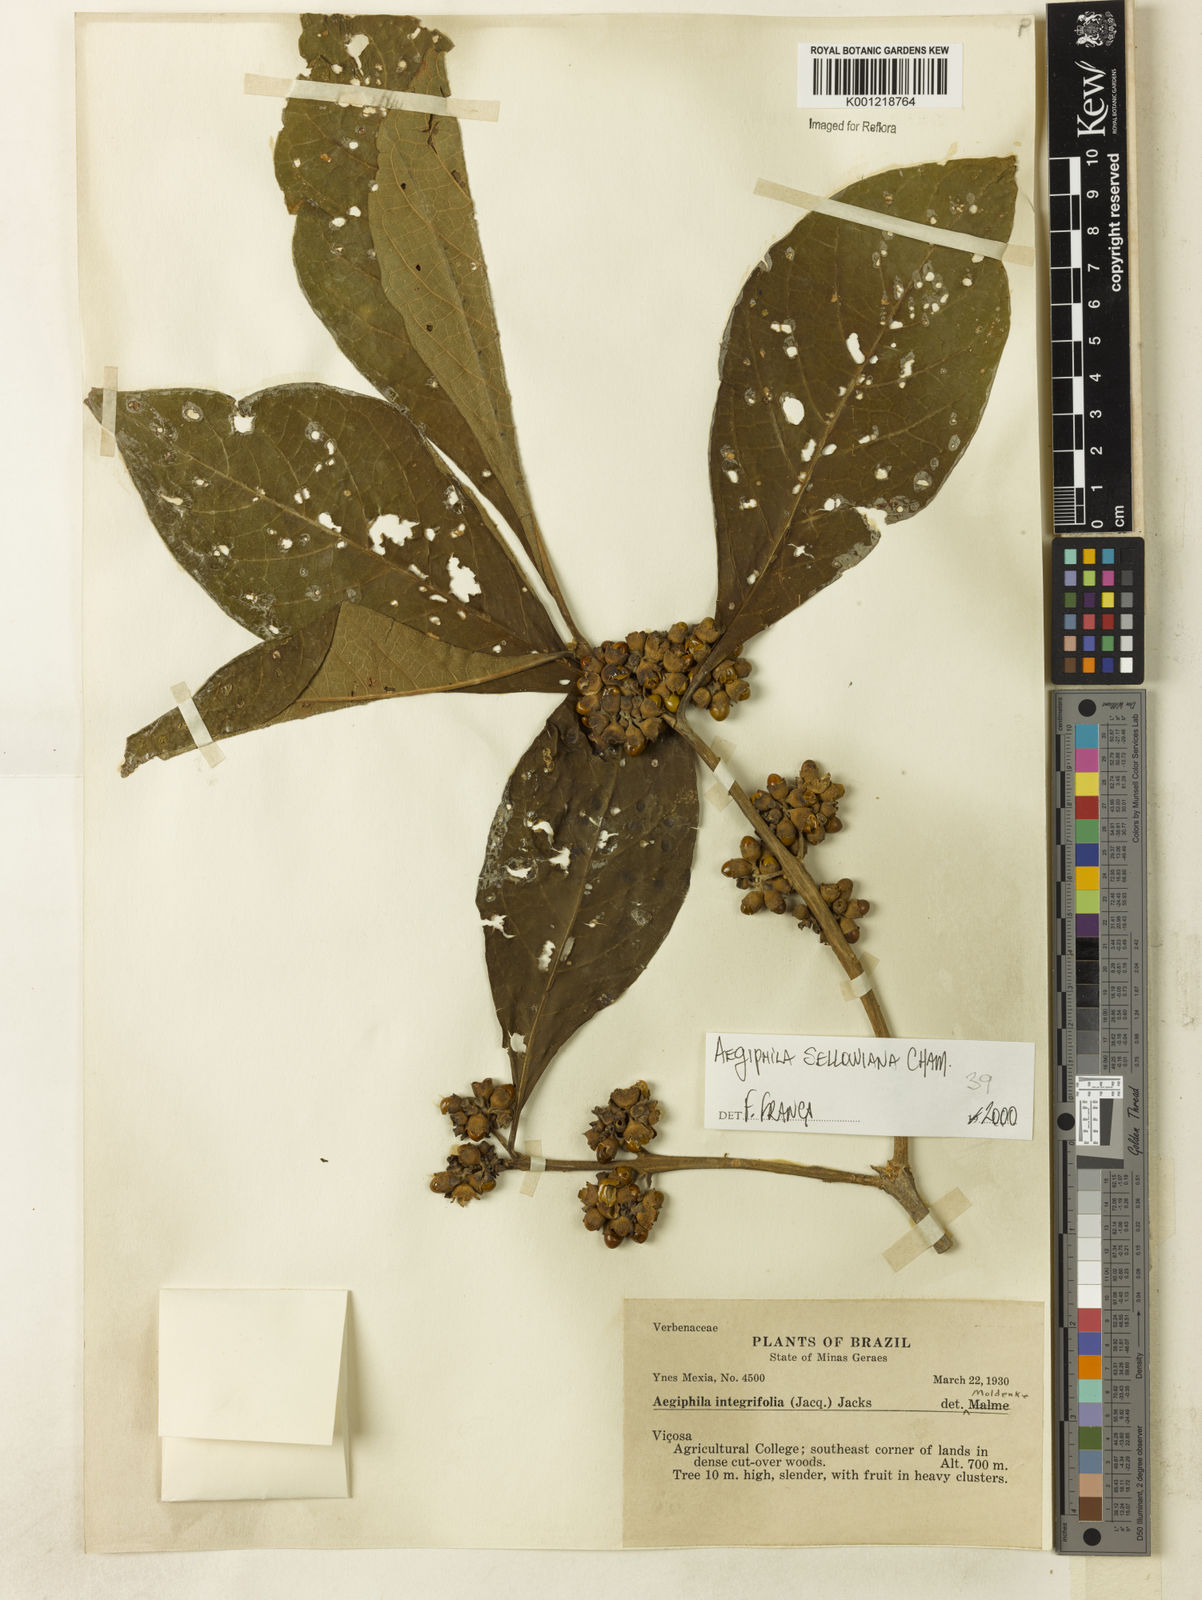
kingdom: Plantae
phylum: Tracheophyta
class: Magnoliopsida
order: Lamiales
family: Lamiaceae
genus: Aegiphila
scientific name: Aegiphila verticillata
